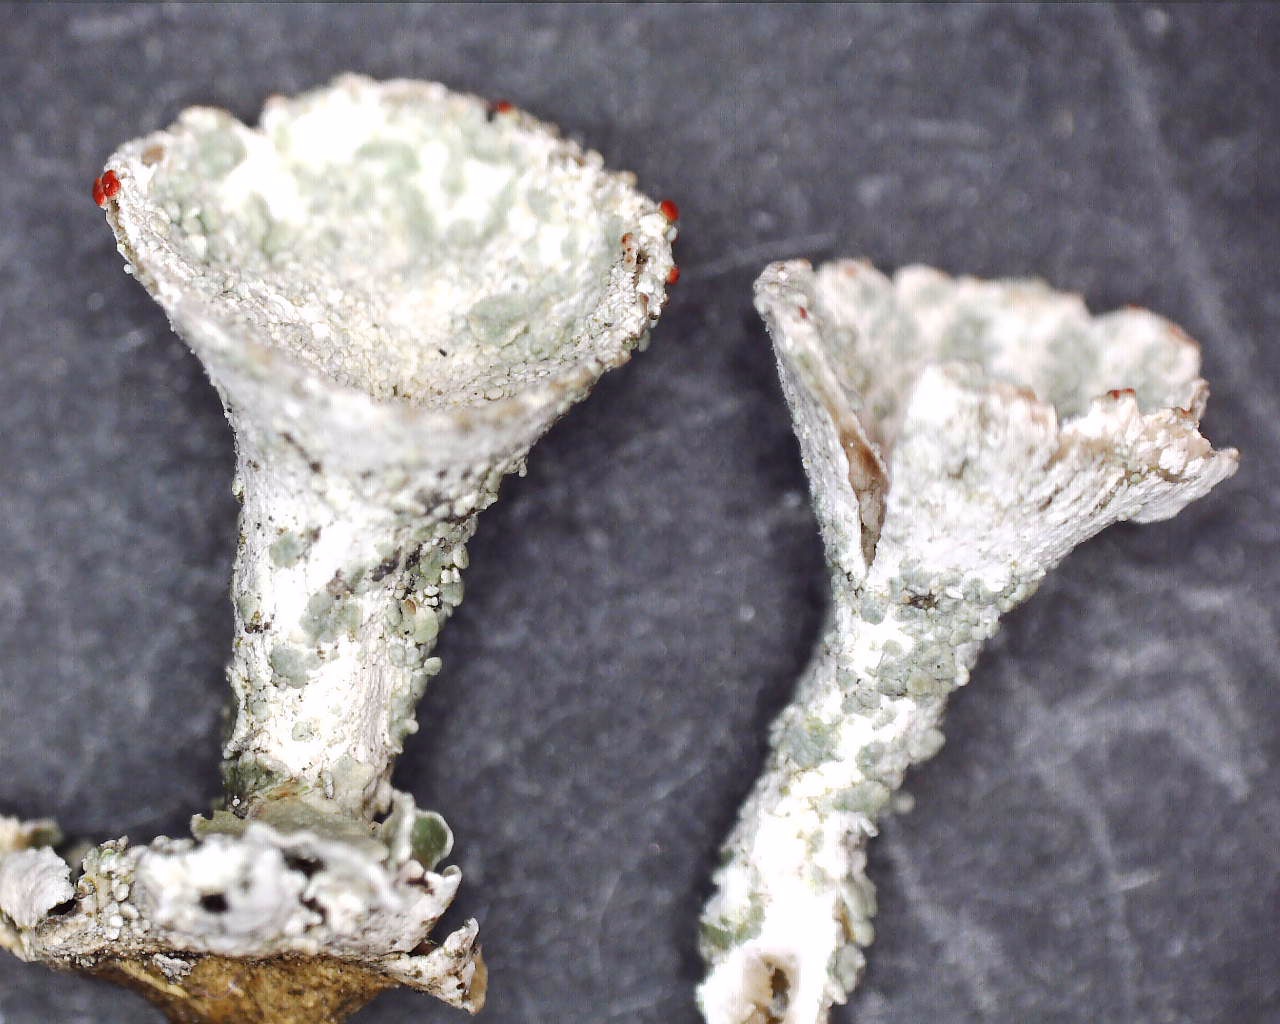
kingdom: Fungi
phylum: Ascomycota
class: Lecanoromycetes
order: Lecanorales
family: Cladoniaceae
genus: Cladonia
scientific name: Cladonia borealis
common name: nordlig bægerlav
